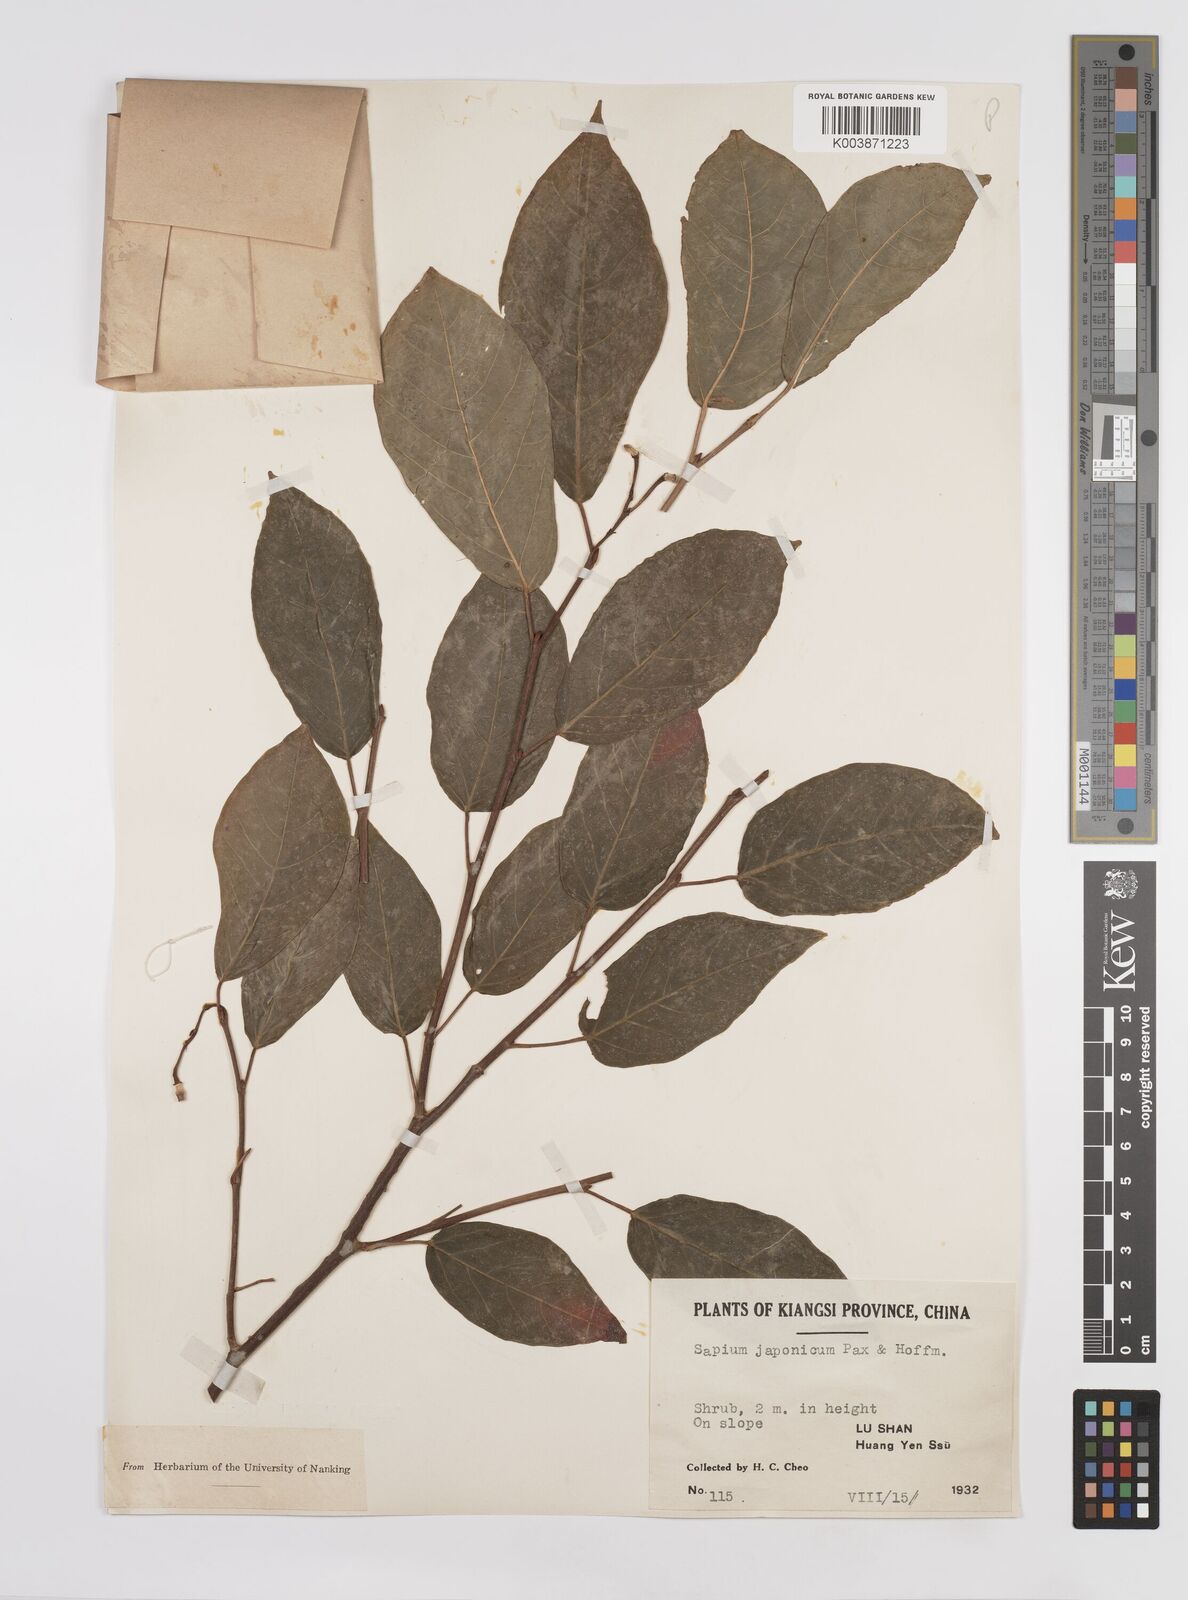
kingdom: Plantae
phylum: Tracheophyta
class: Magnoliopsida
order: Malpighiales
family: Euphorbiaceae
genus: Neoshirakia
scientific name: Neoshirakia japonica
